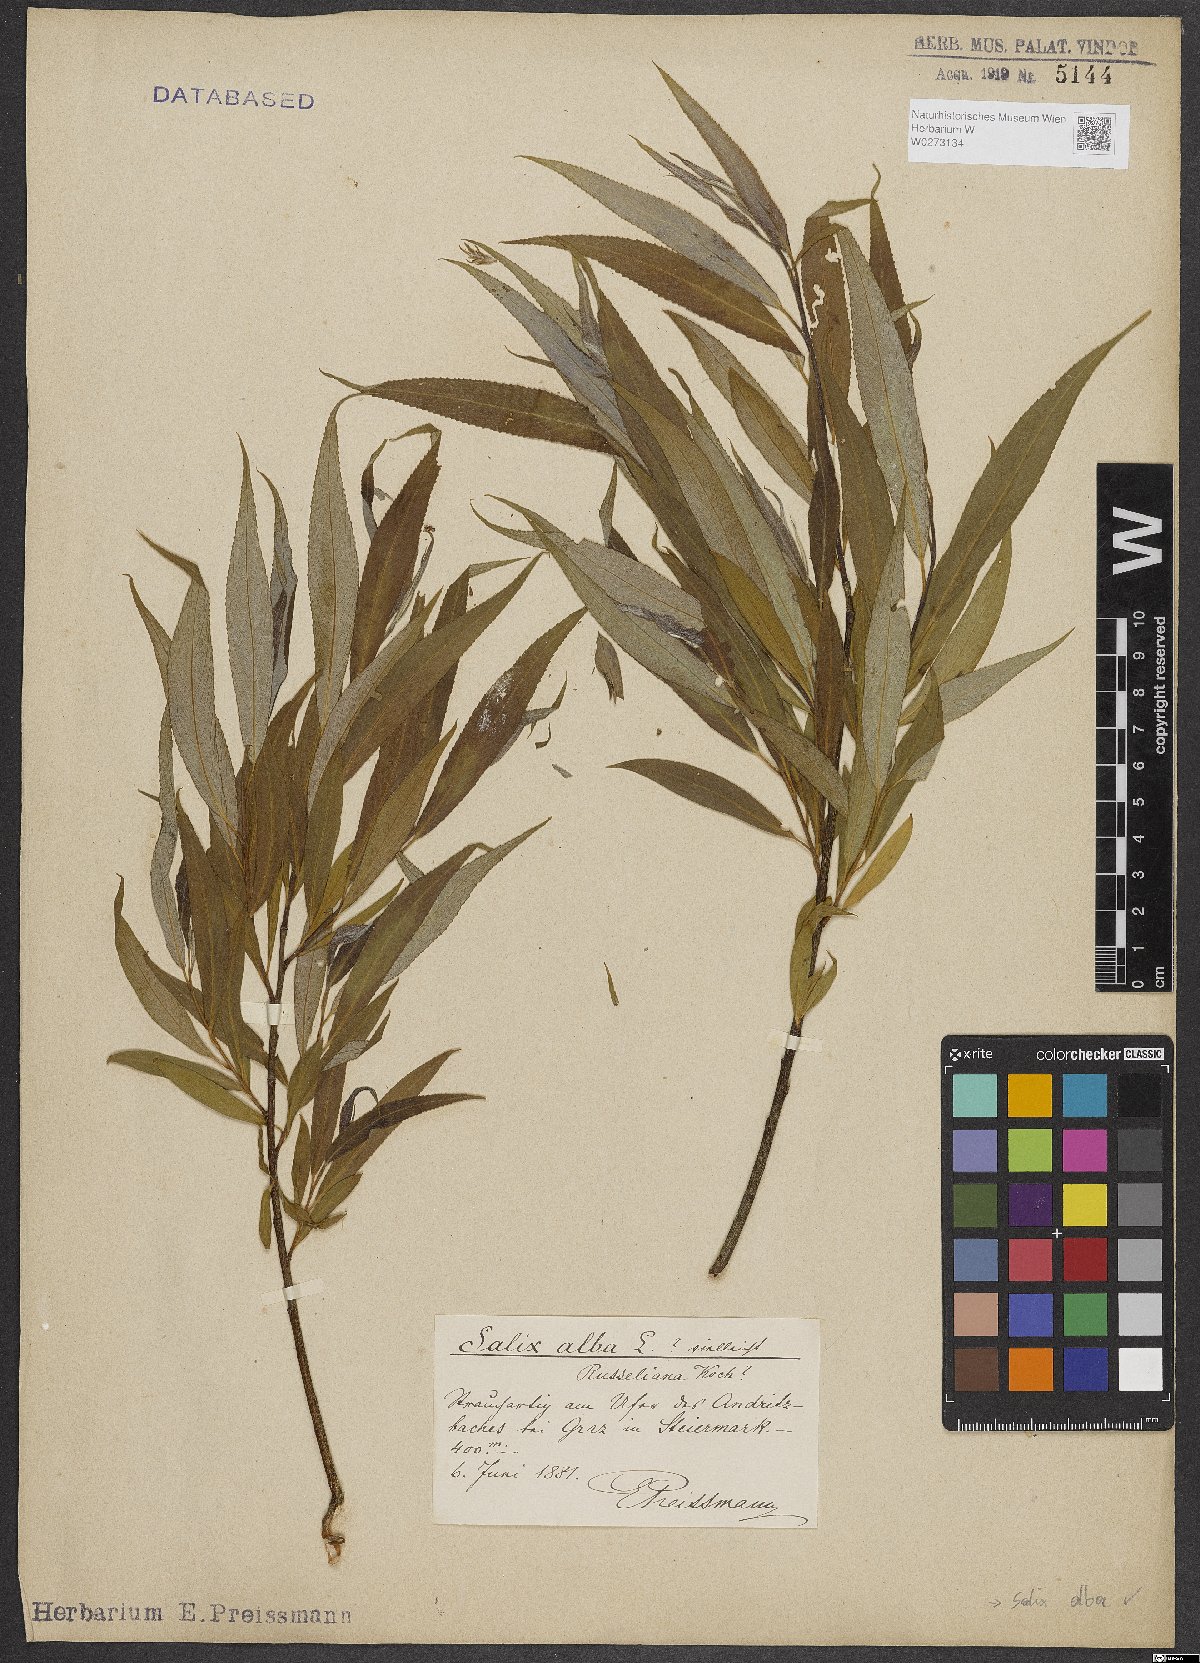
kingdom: Plantae
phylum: Tracheophyta
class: Magnoliopsida
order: Malpighiales
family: Salicaceae
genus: Salix
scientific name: Salix alba
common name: White willow
